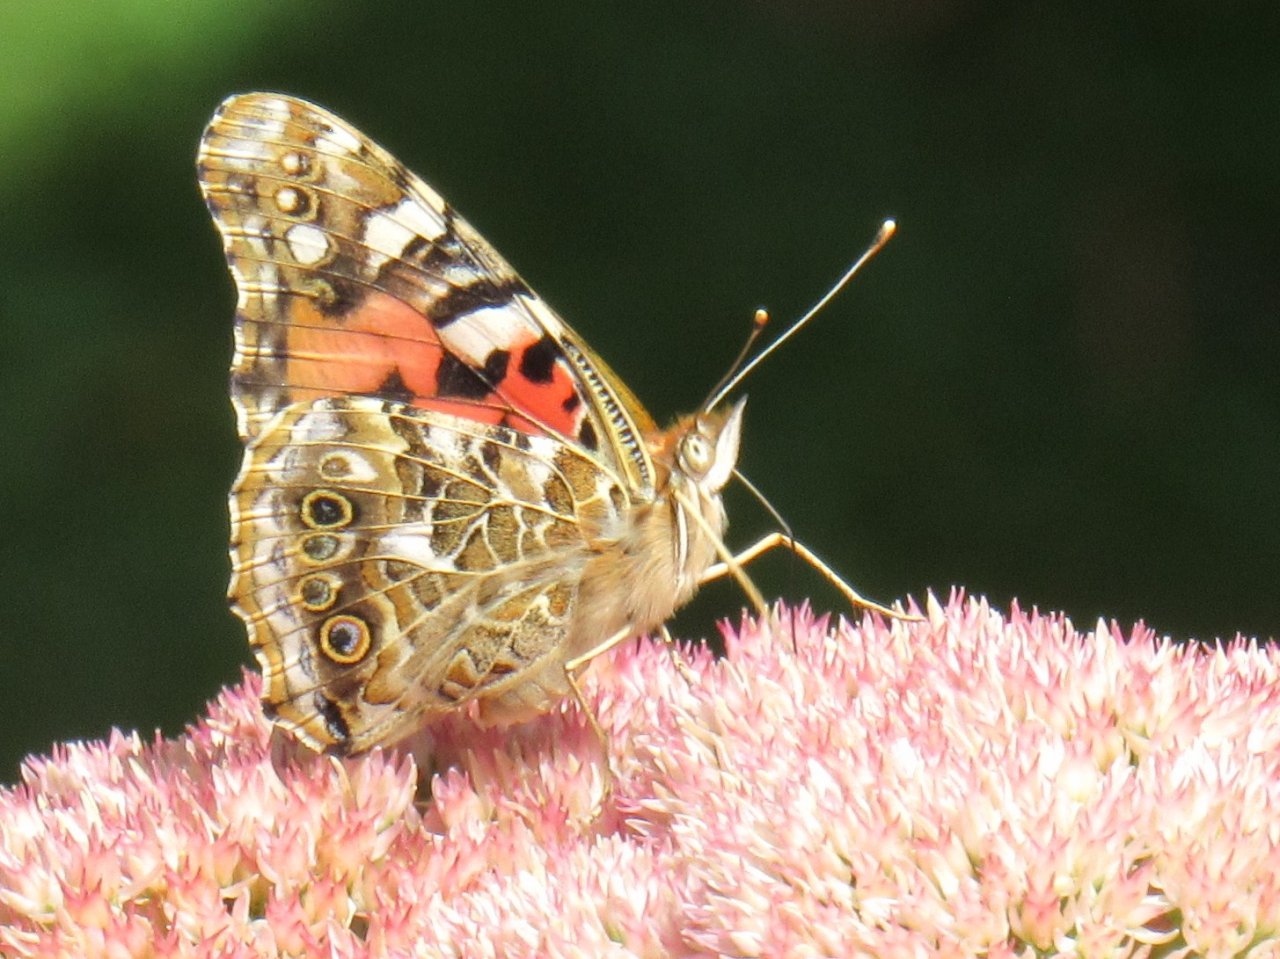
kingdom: Animalia
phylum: Arthropoda
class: Insecta
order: Lepidoptera
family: Nymphalidae
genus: Vanessa
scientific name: Vanessa cardui
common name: Painted Lady
